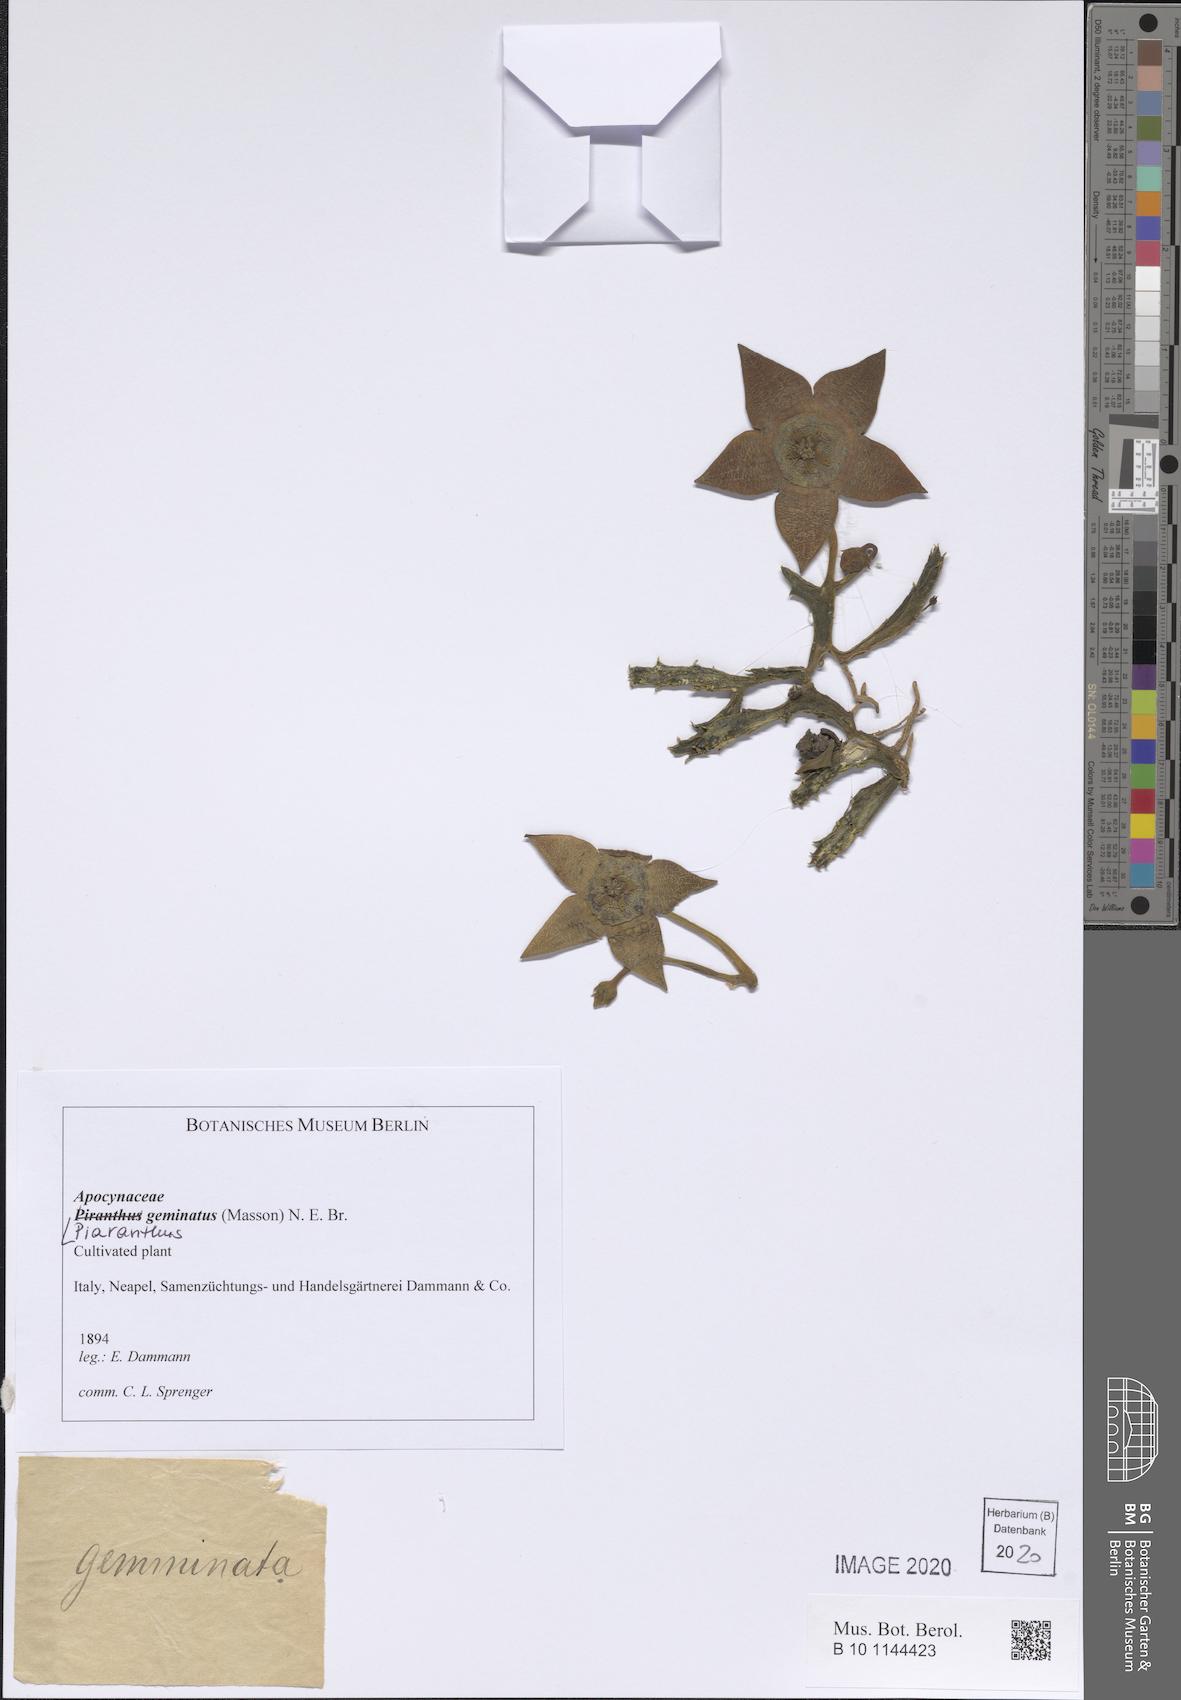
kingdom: Plantae
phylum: Tracheophyta
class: Magnoliopsida
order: Gentianales
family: Apocynaceae
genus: Ceropegia
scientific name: Ceropegia geminata
